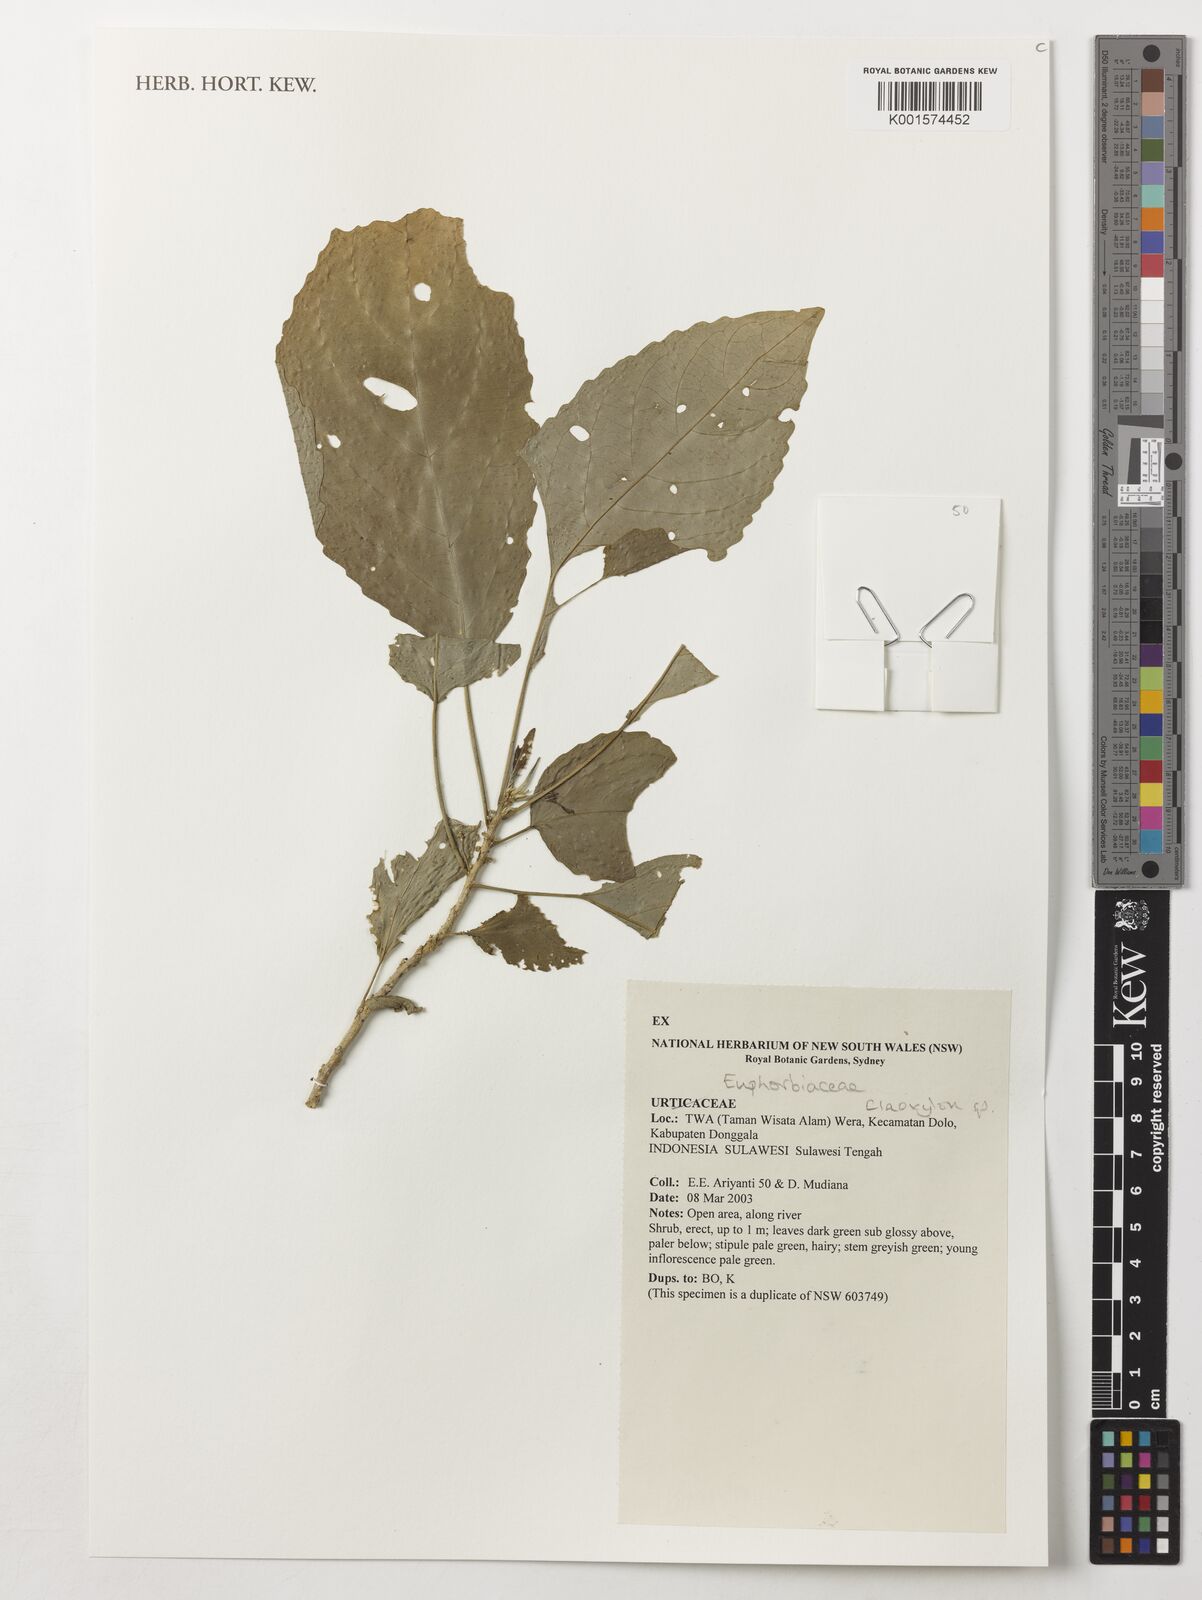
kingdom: Plantae
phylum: Tracheophyta
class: Magnoliopsida
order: Malpighiales
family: Euphorbiaceae
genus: Claoxylon
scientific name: Claoxylon
